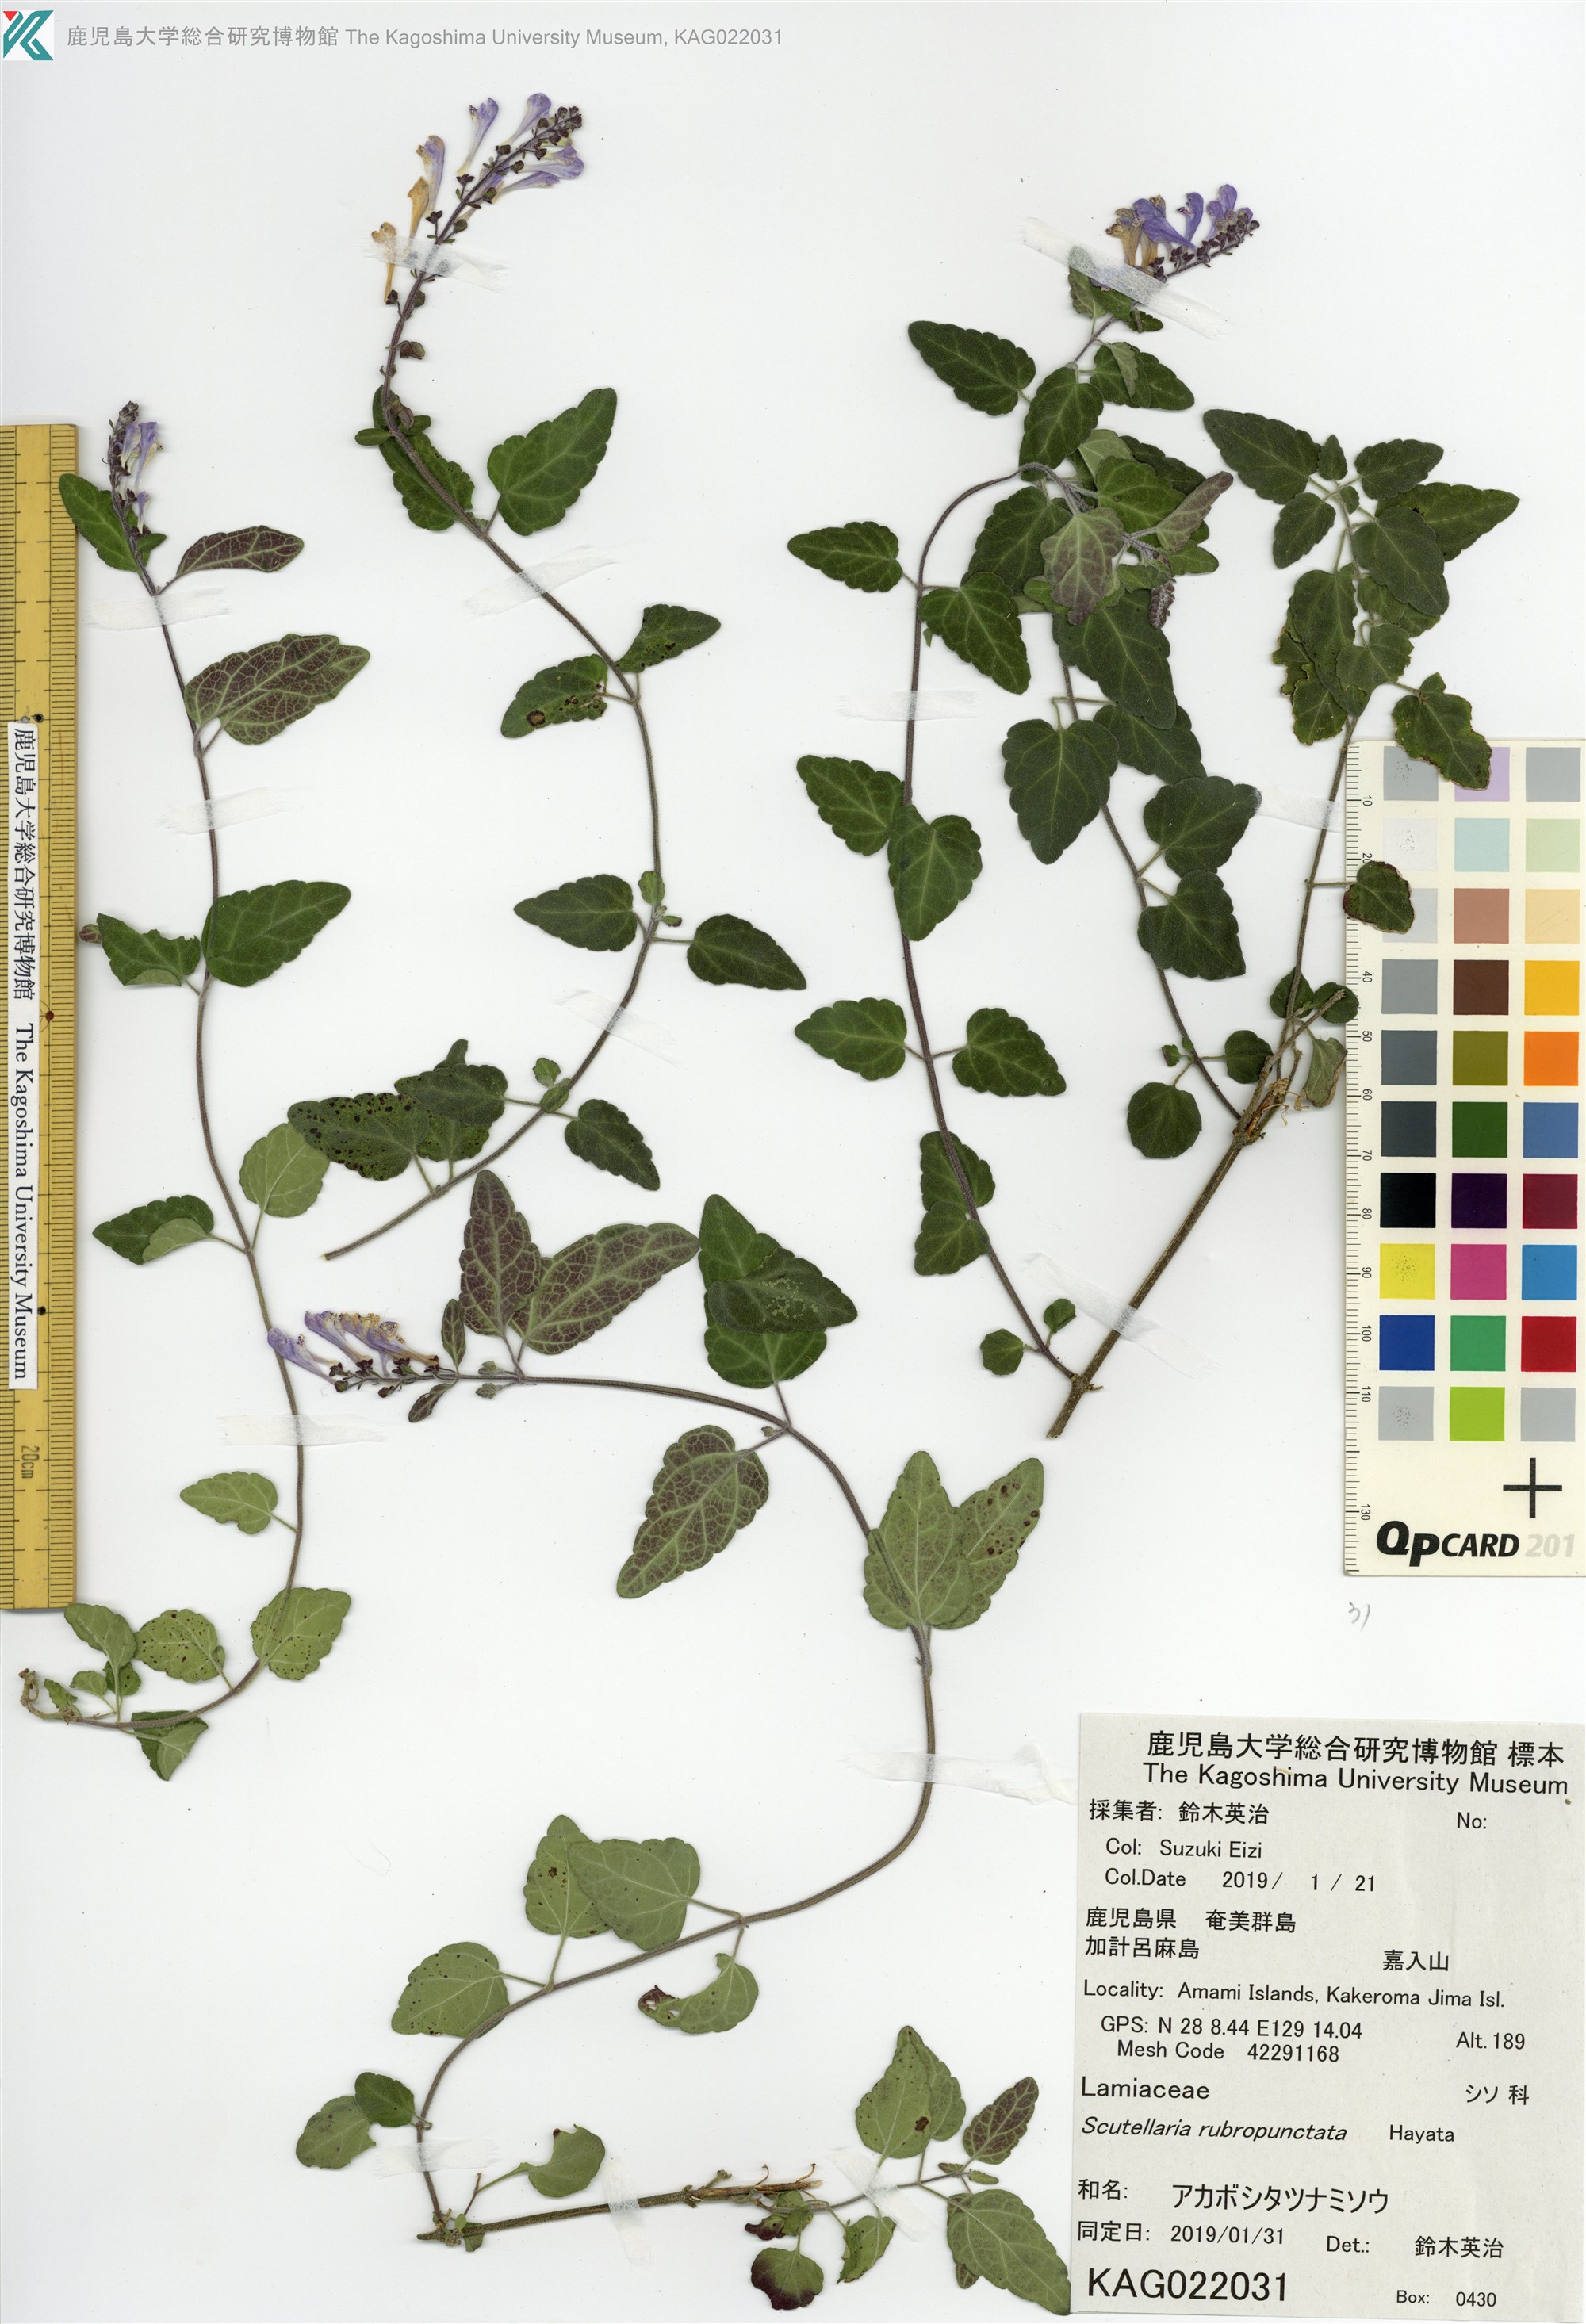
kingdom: Plantae
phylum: Tracheophyta
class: Magnoliopsida
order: Lamiales
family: Lamiaceae
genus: Scutellaria
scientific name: Scutellaria rubropunctata
